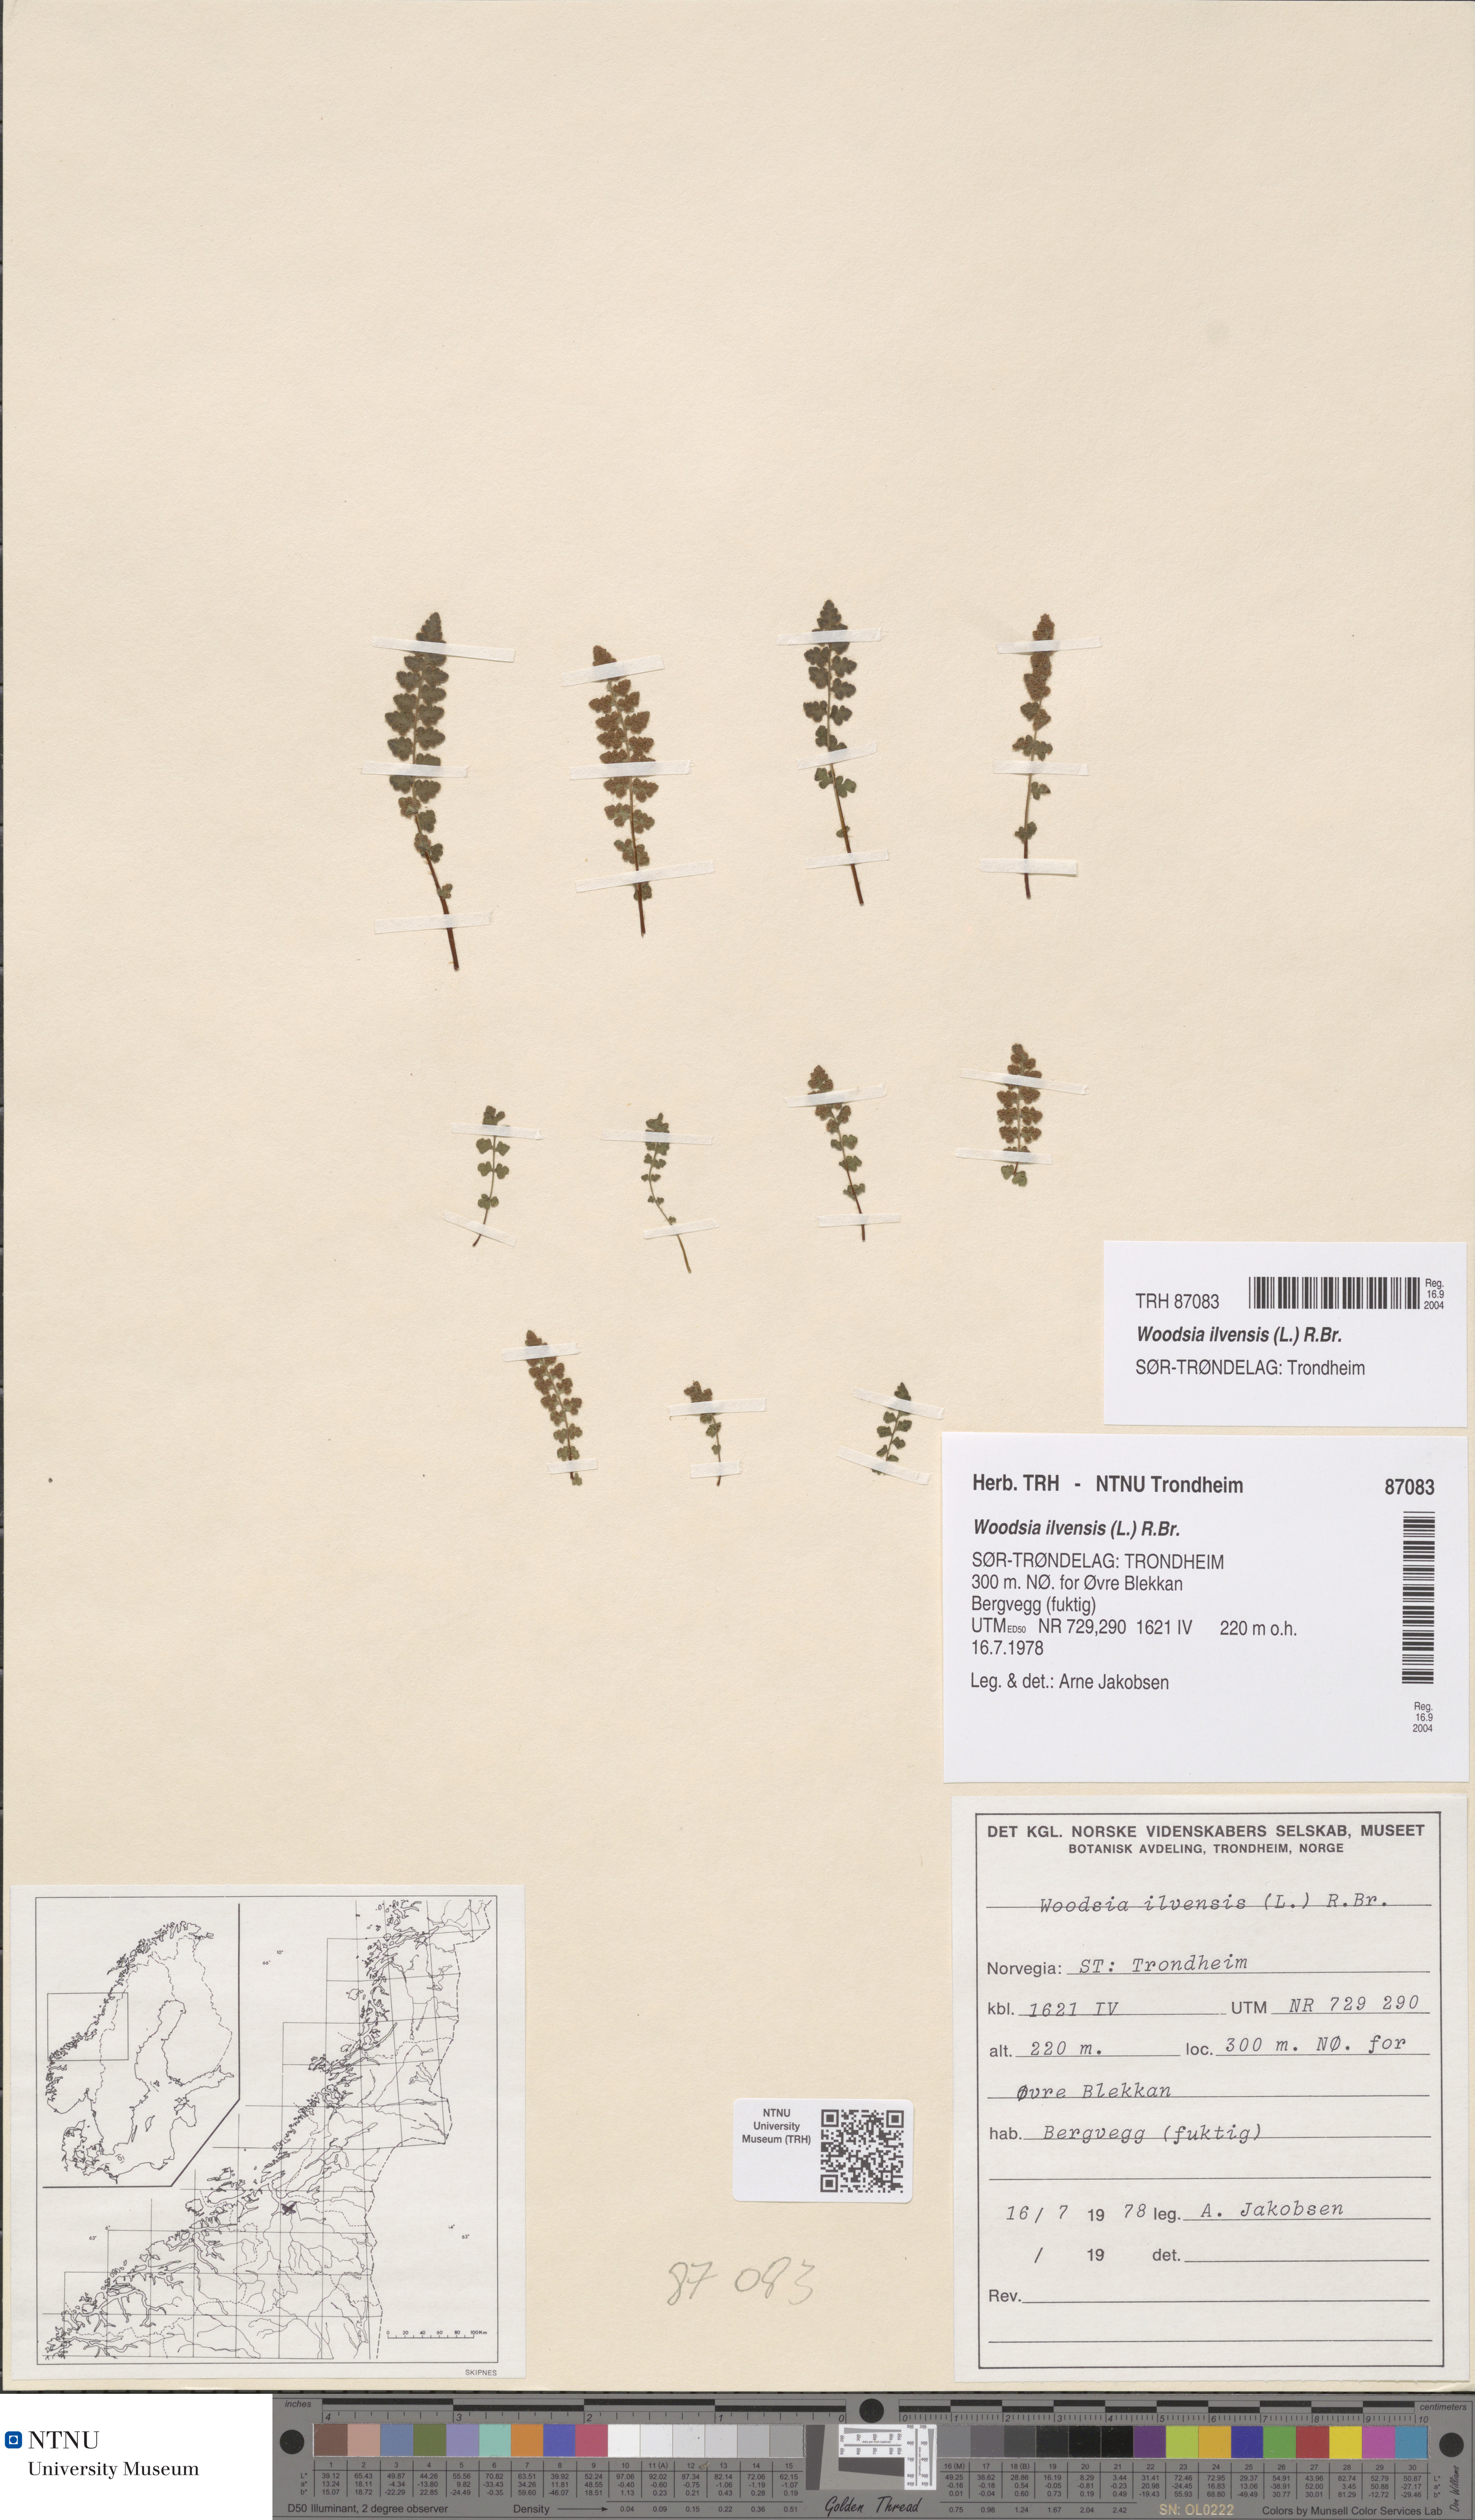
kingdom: Plantae
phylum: Tracheophyta
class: Polypodiopsida
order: Polypodiales
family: Woodsiaceae
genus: Woodsia
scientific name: Woodsia ilvensis
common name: Fragrant woodsia
